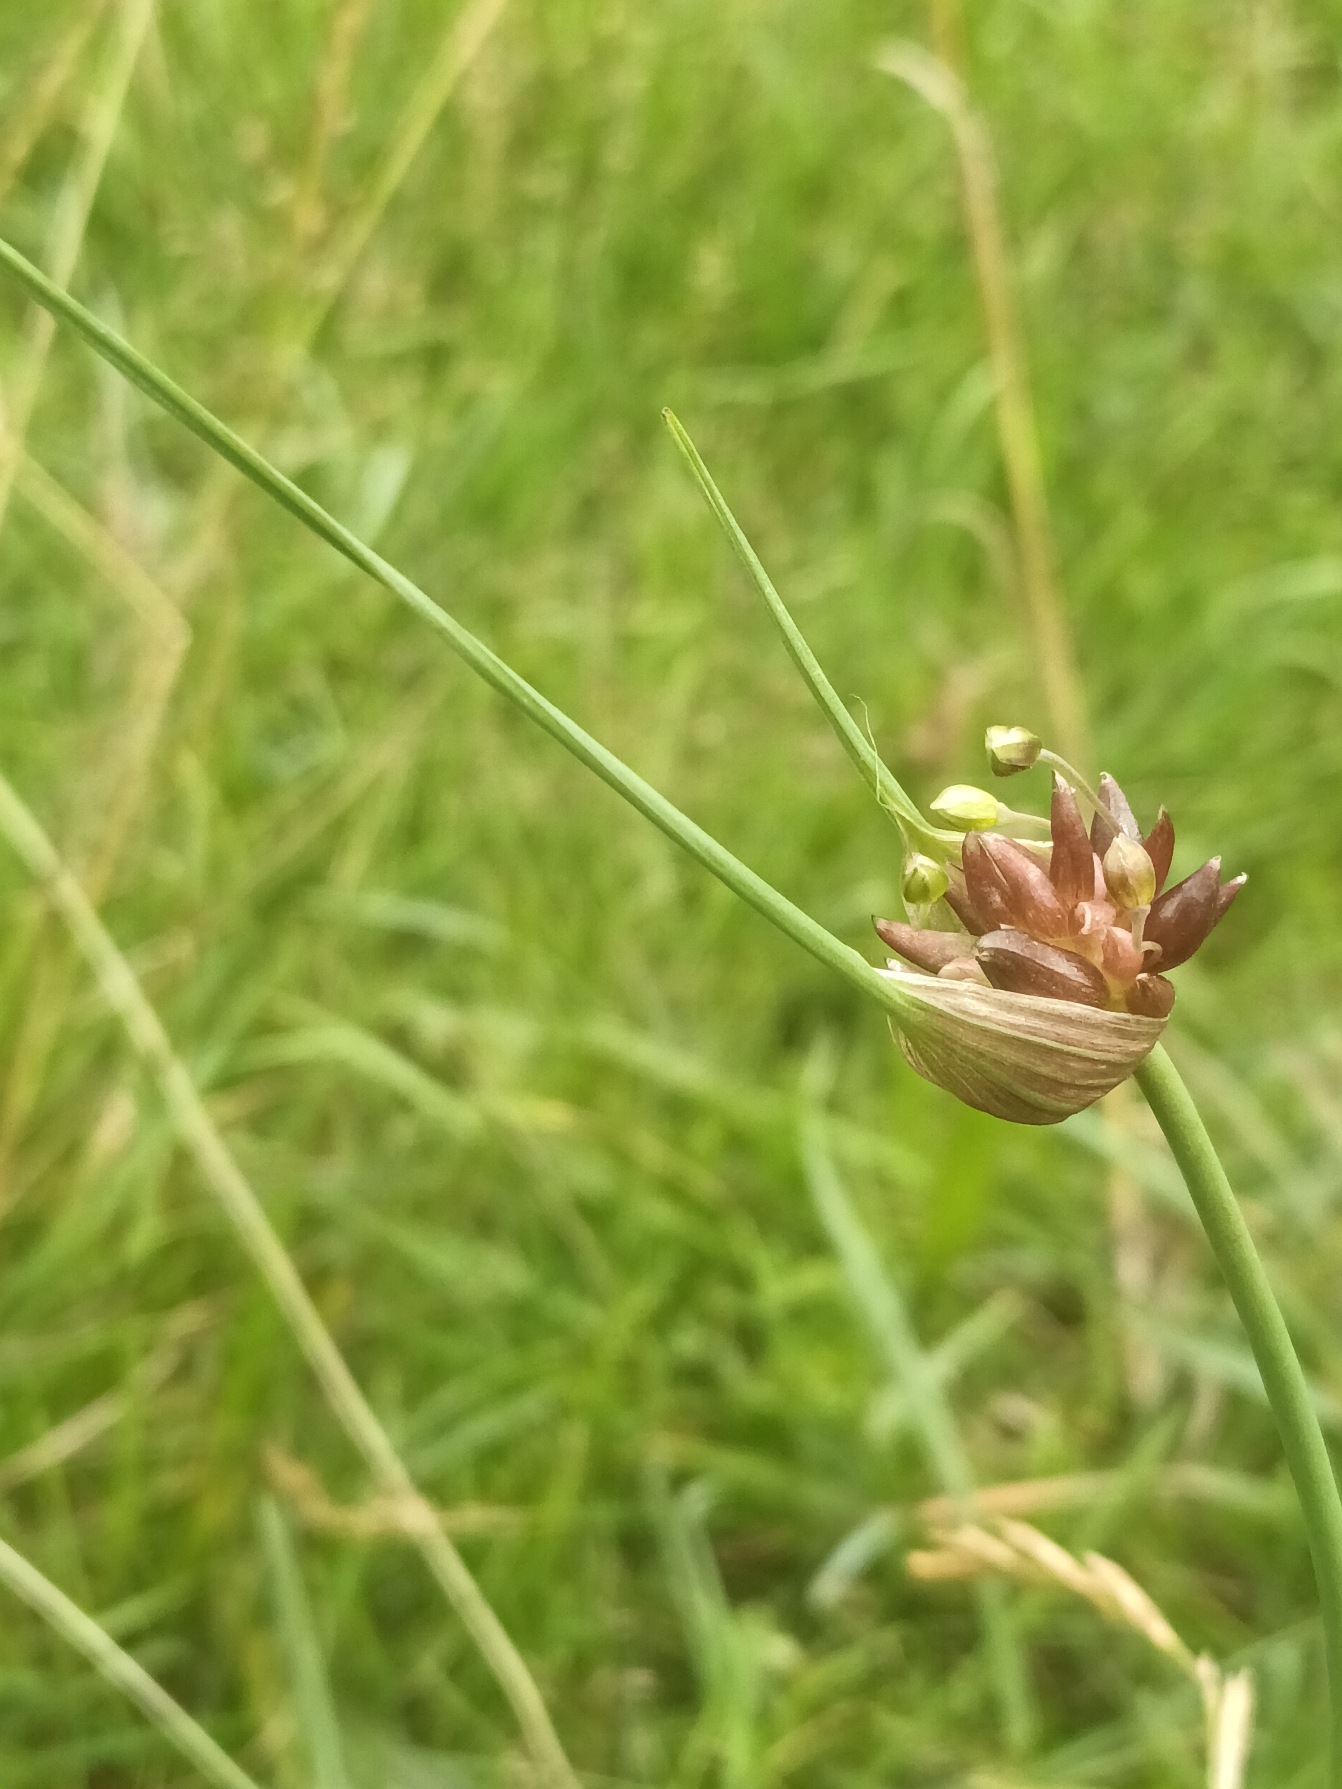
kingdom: Plantae
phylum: Tracheophyta
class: Liliopsida
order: Asparagales
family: Amaryllidaceae
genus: Allium
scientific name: Allium oleraceum
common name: Vild løg
